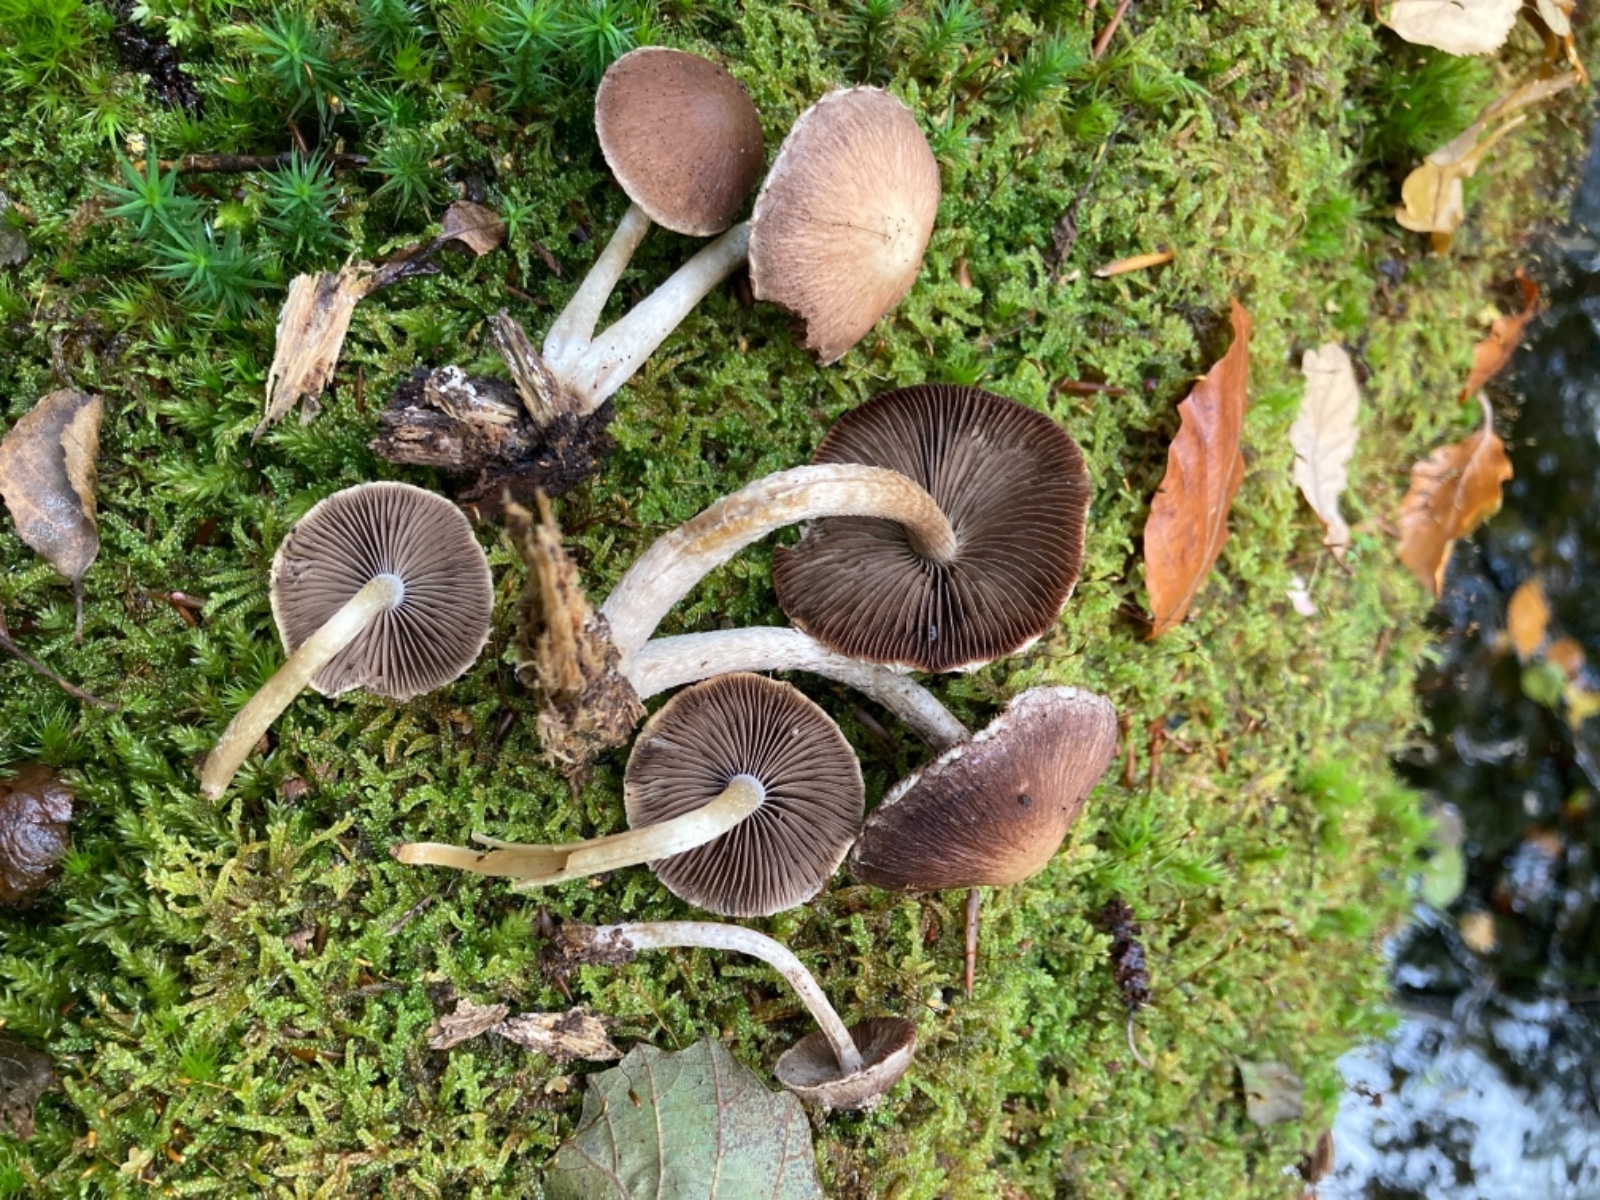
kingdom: Fungi
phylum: Basidiomycota
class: Agaricomycetes
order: Agaricales
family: Psathyrellaceae
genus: Psathyrella
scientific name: Psathyrella spintrigeroides
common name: tandet mørkhat
